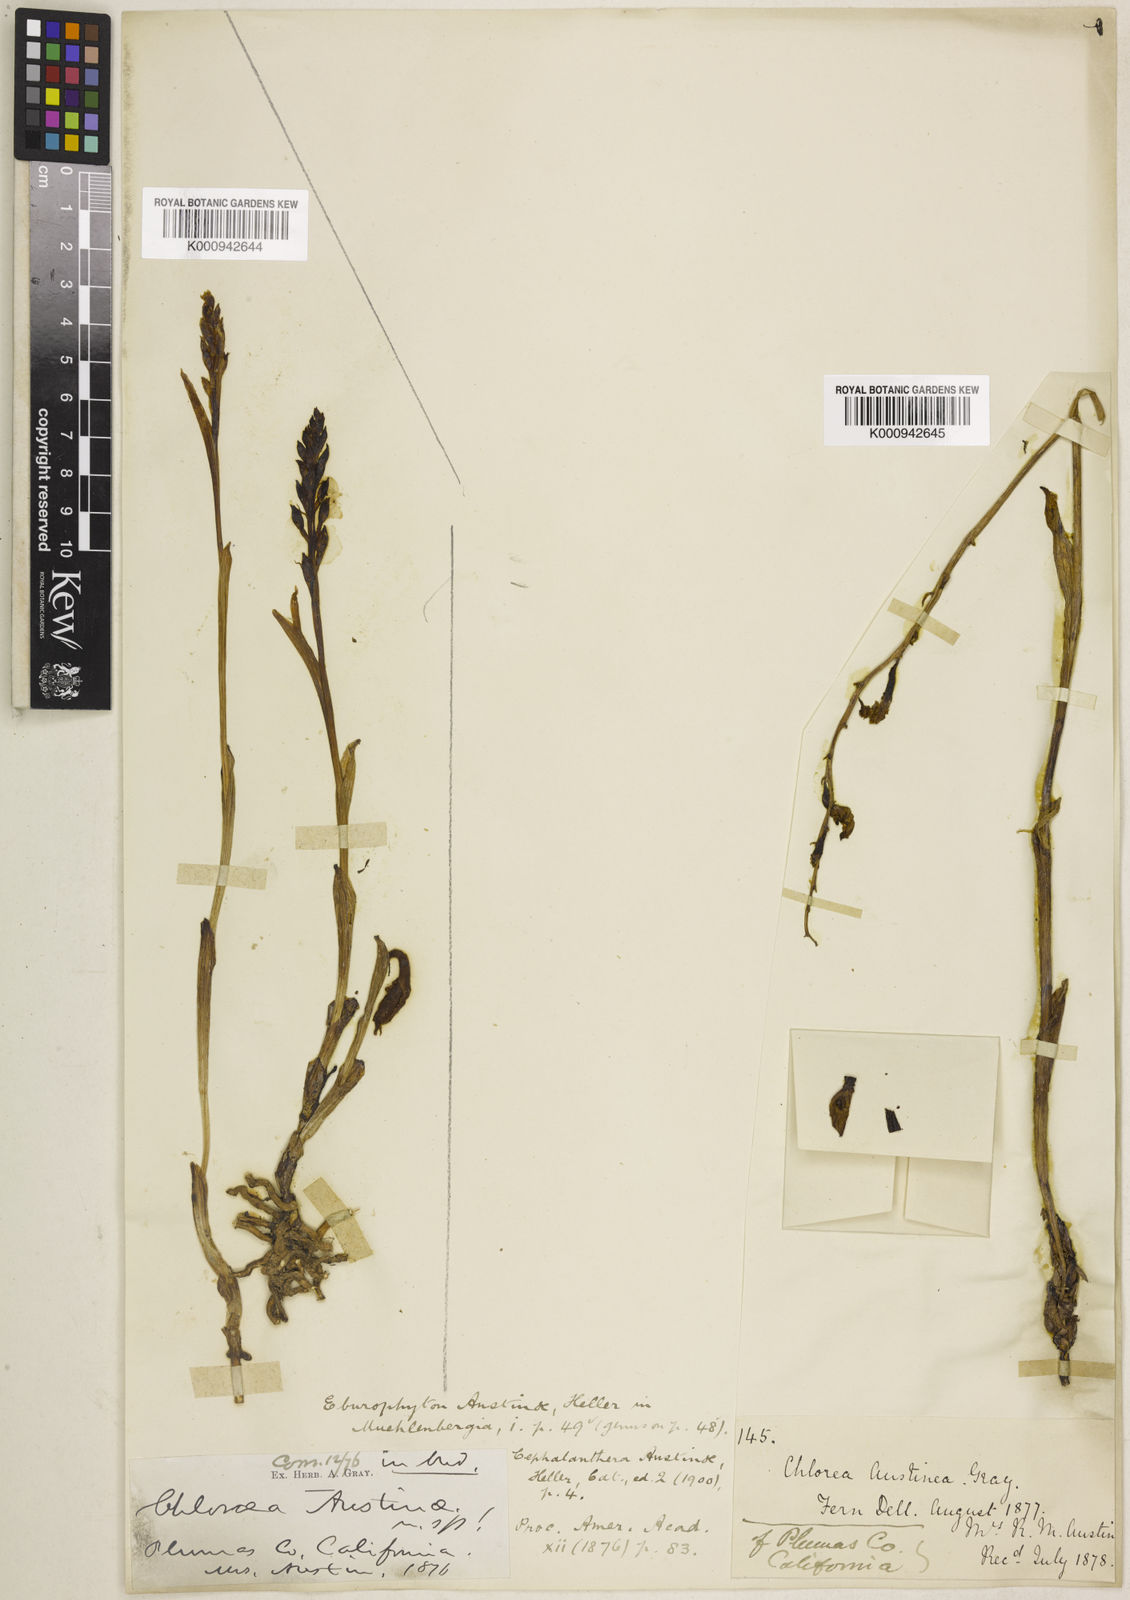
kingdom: Plantae
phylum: Tracheophyta
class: Liliopsida
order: Asparagales
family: Orchidaceae
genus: Cephalanthera
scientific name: Cephalanthera austiniae
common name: Phantom orchid
